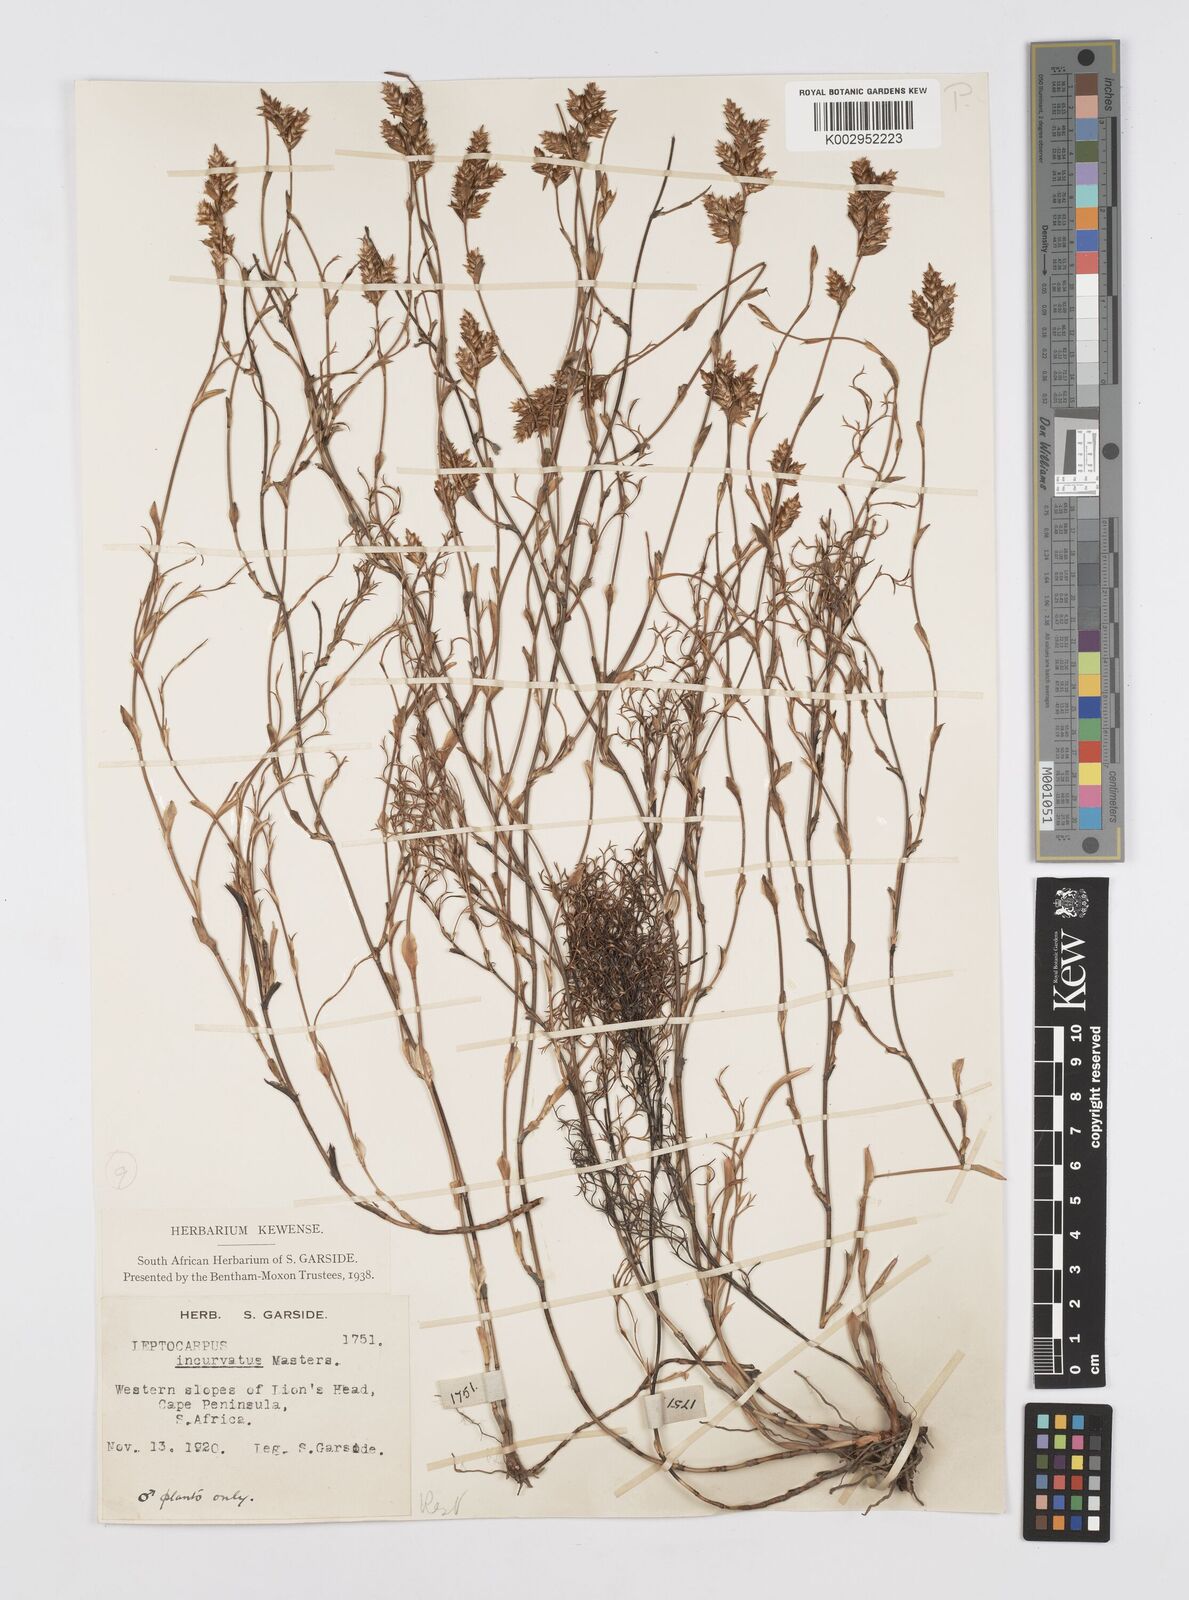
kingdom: Plantae
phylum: Tracheophyta
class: Liliopsida
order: Poales
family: Restionaceae
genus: Restio
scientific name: Restio vimineus
